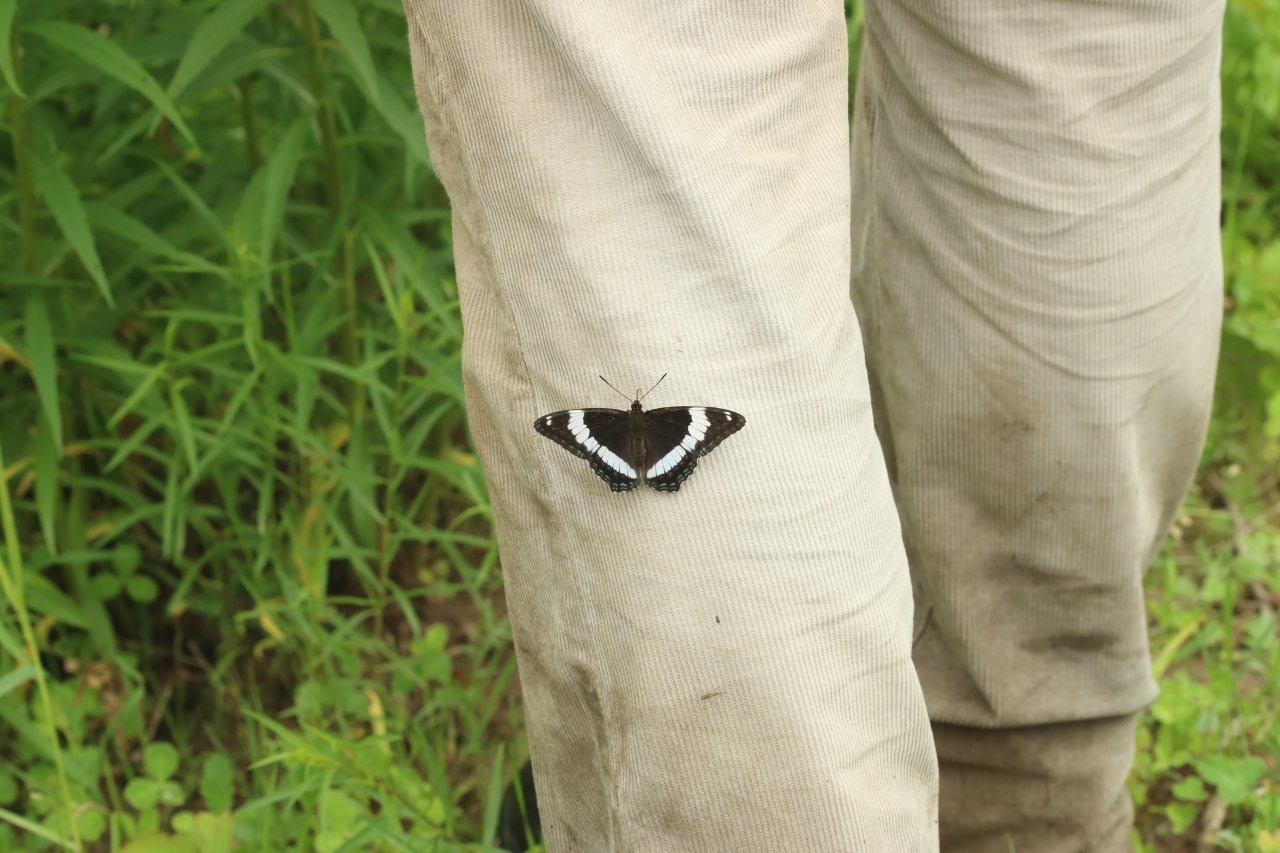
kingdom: Animalia
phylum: Arthropoda
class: Insecta
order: Lepidoptera
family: Nymphalidae
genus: Limenitis
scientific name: Limenitis arthemis
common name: Red-spotted Admiral
